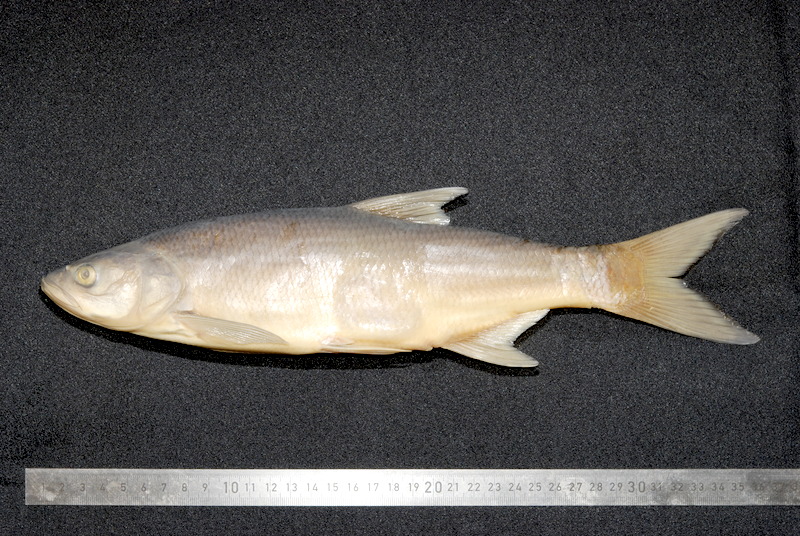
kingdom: Animalia
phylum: Chordata
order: Cypriniformes
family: Cyprinidae
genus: Leuciscus
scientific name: Leuciscus aspius
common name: Asp
